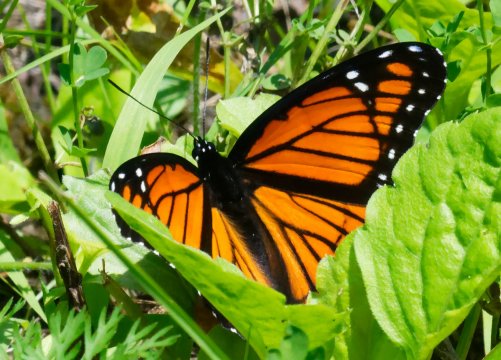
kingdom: Animalia
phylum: Arthropoda
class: Insecta
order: Lepidoptera
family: Nymphalidae
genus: Limenitis
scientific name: Limenitis archippus
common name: Viceroy
